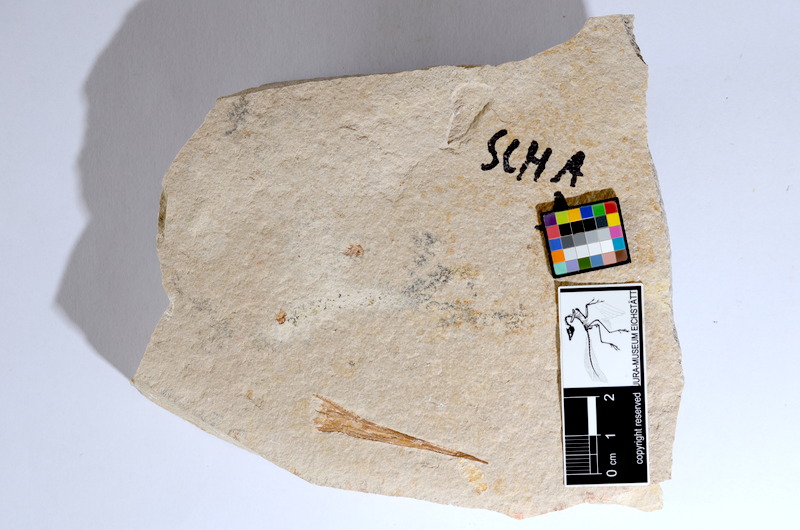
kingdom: Animalia
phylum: Chordata
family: Aspidorhynchidae
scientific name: Aspidorhynchidae
